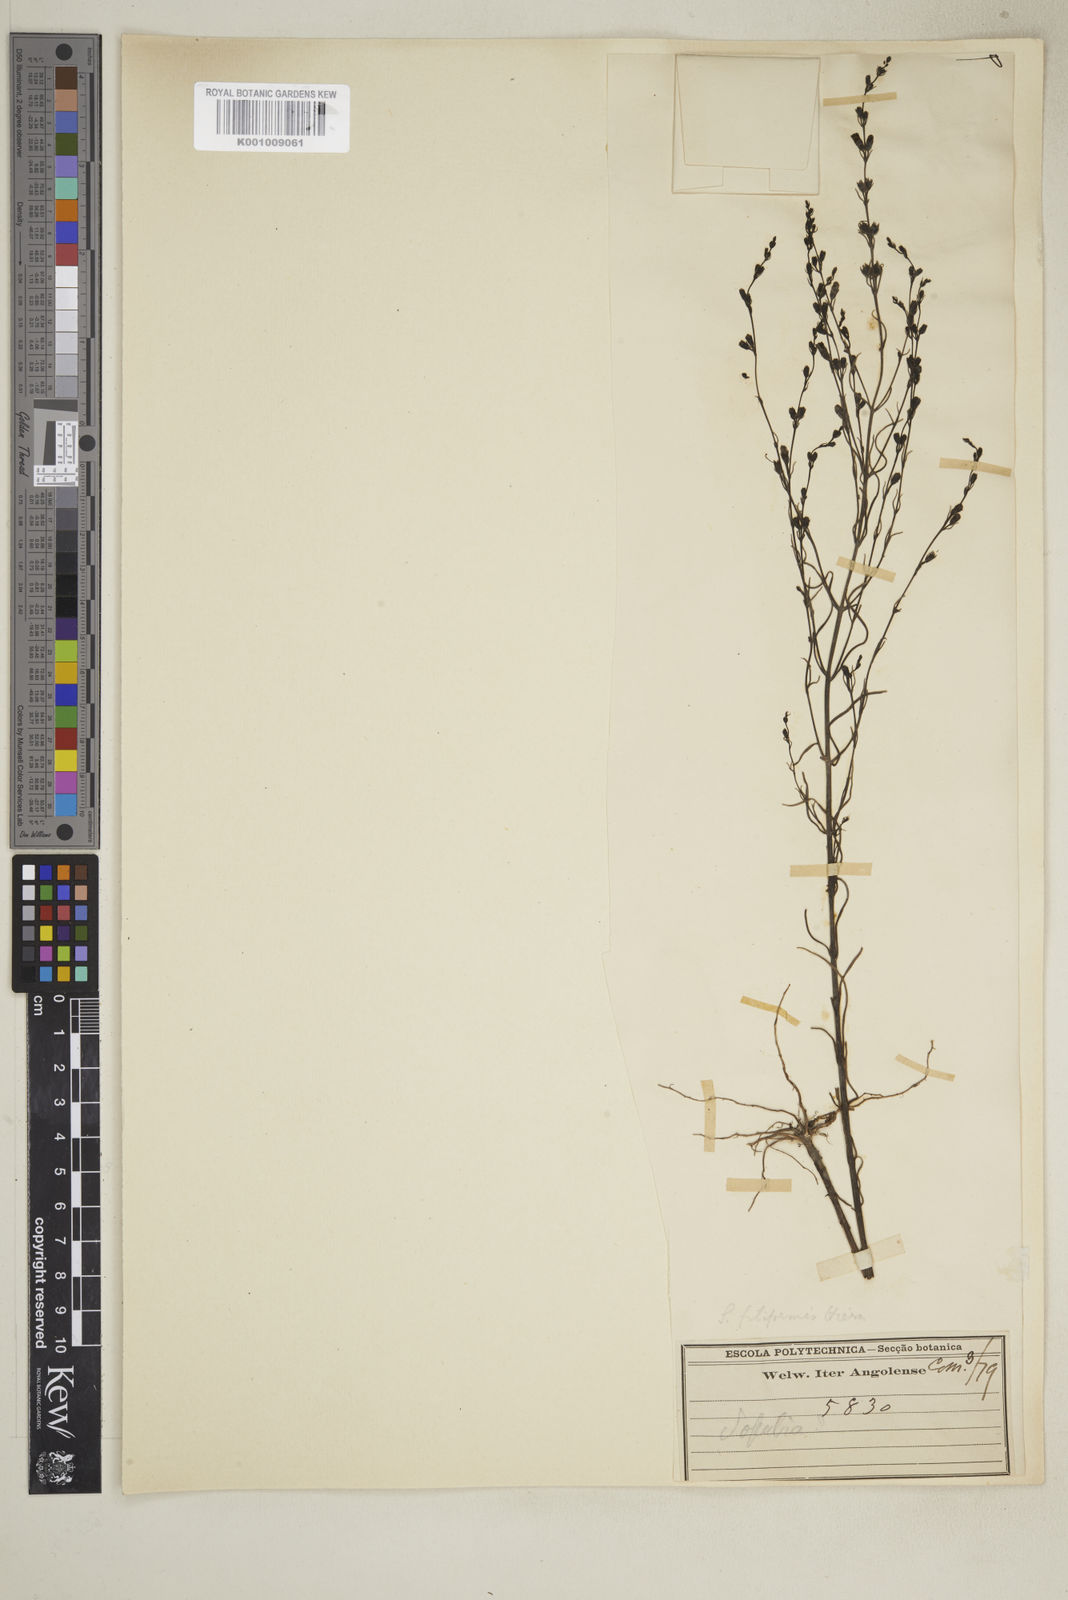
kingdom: Plantae
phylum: Tracheophyta
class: Magnoliopsida
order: Lamiales
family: Orobanchaceae
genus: Micrargeria
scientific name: Micrargeria filiformis
